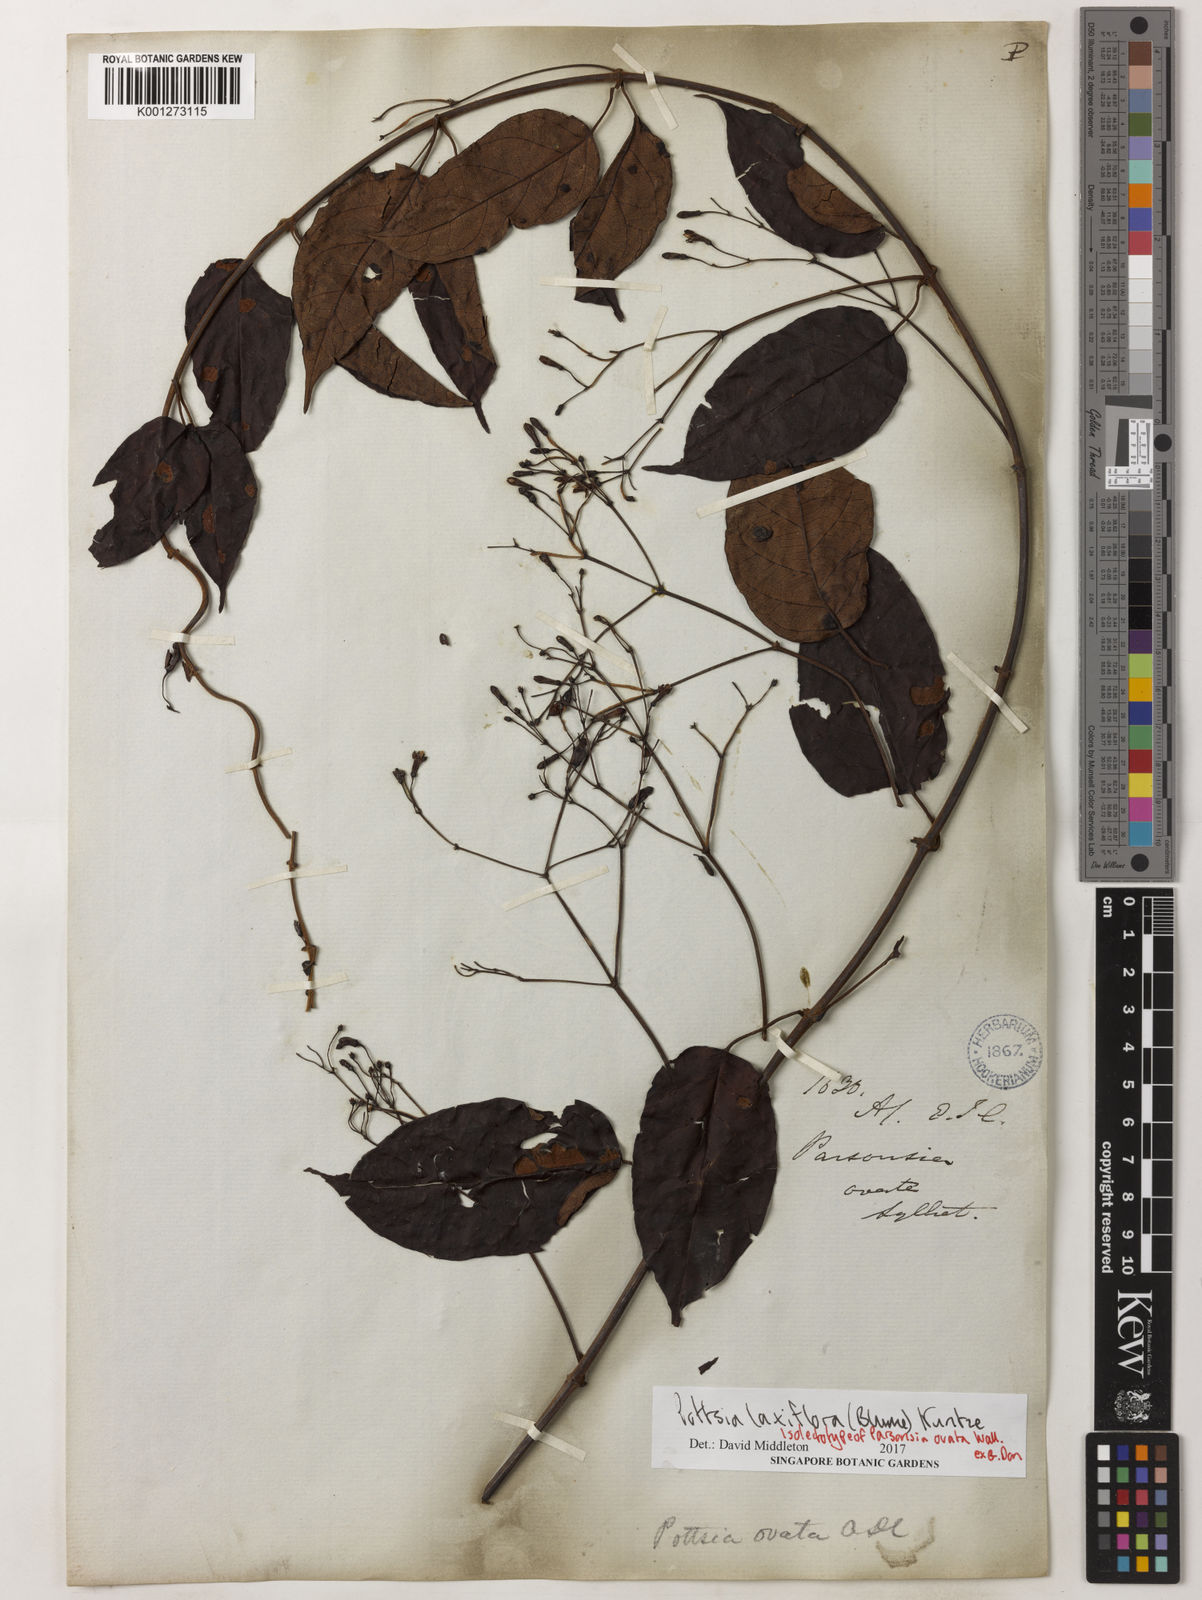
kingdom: Plantae
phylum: Tracheophyta
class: Magnoliopsida
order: Gentianales
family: Apocynaceae
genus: Pottsia
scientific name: Pottsia laxiflora
